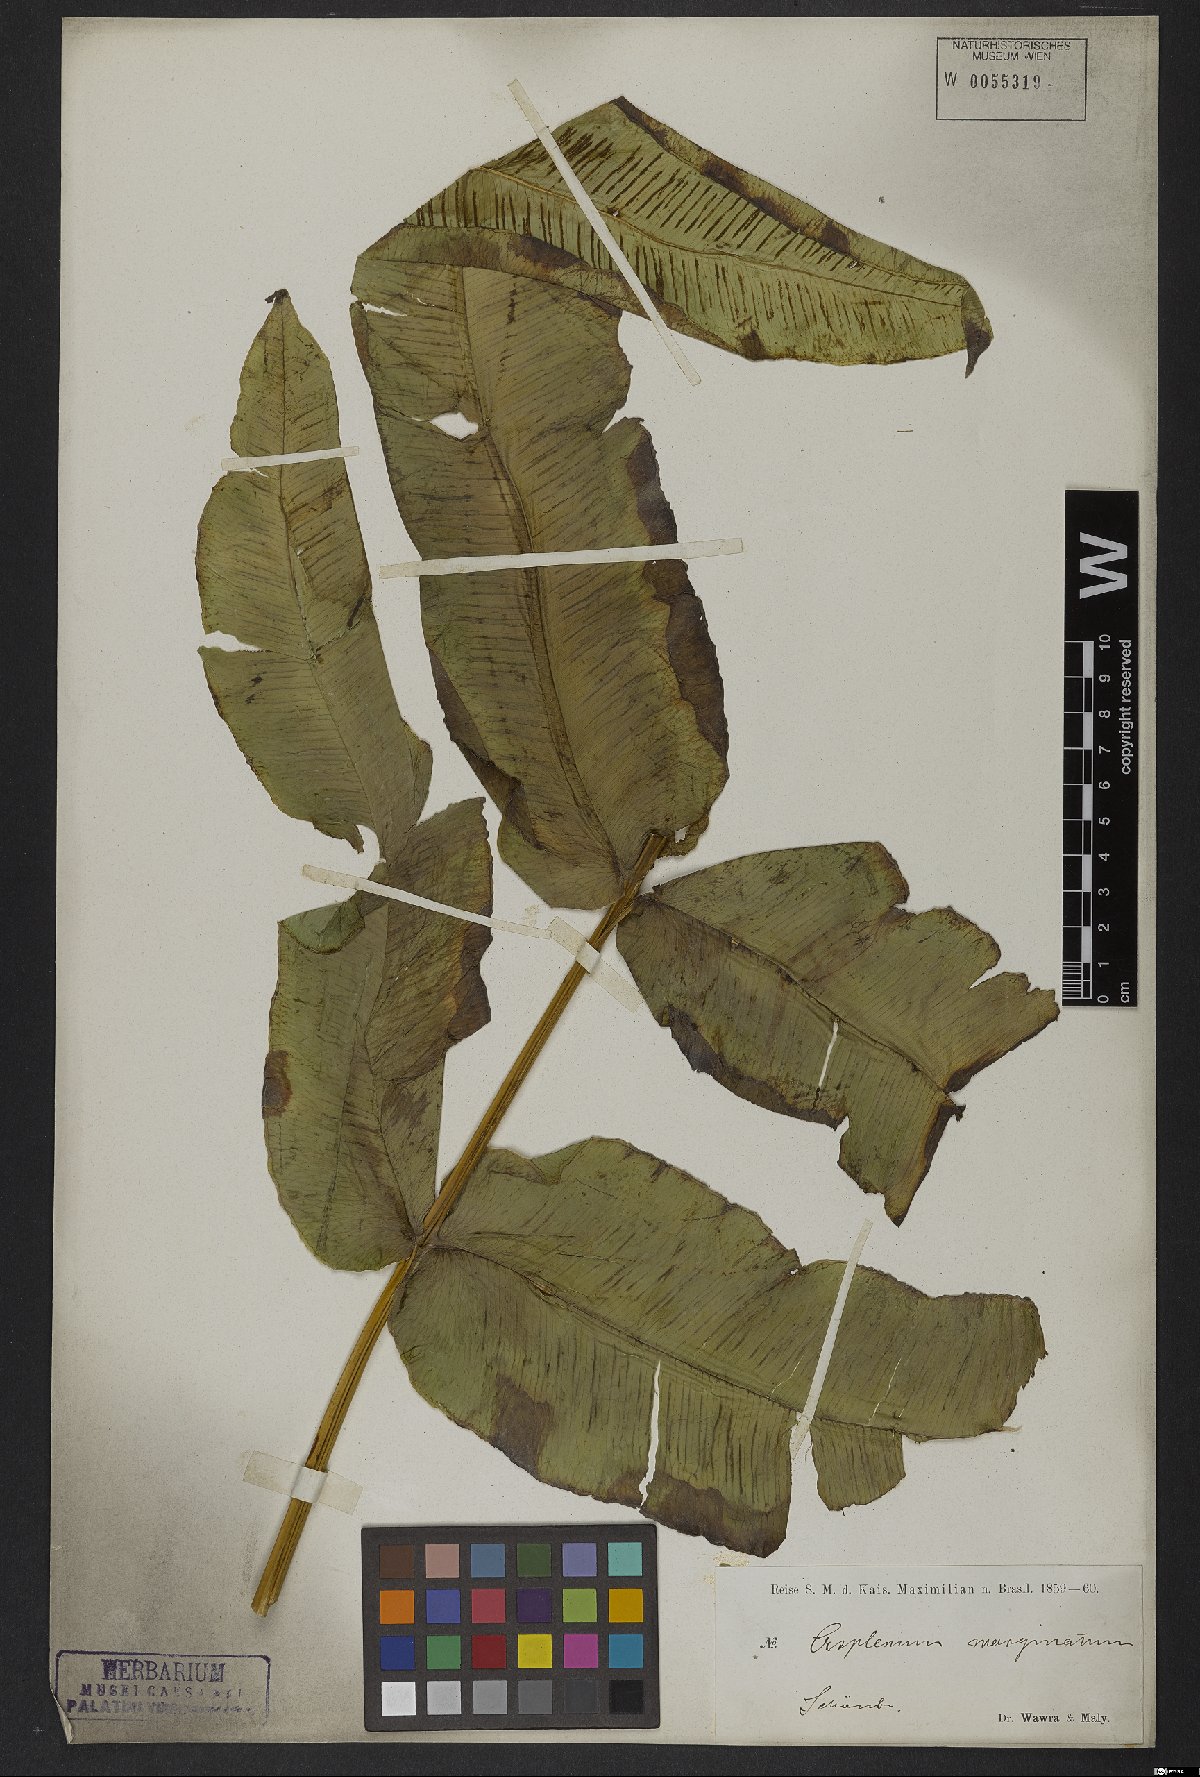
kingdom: Plantae
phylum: Tracheophyta
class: Polypodiopsida
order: Polypodiales
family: Hemidictyaceae
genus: Hemidictyum
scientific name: Hemidictyum marginatum
